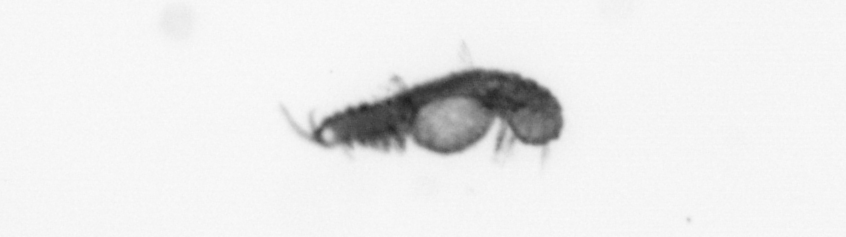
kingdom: Animalia
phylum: Annelida
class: Polychaeta
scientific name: Polychaeta
